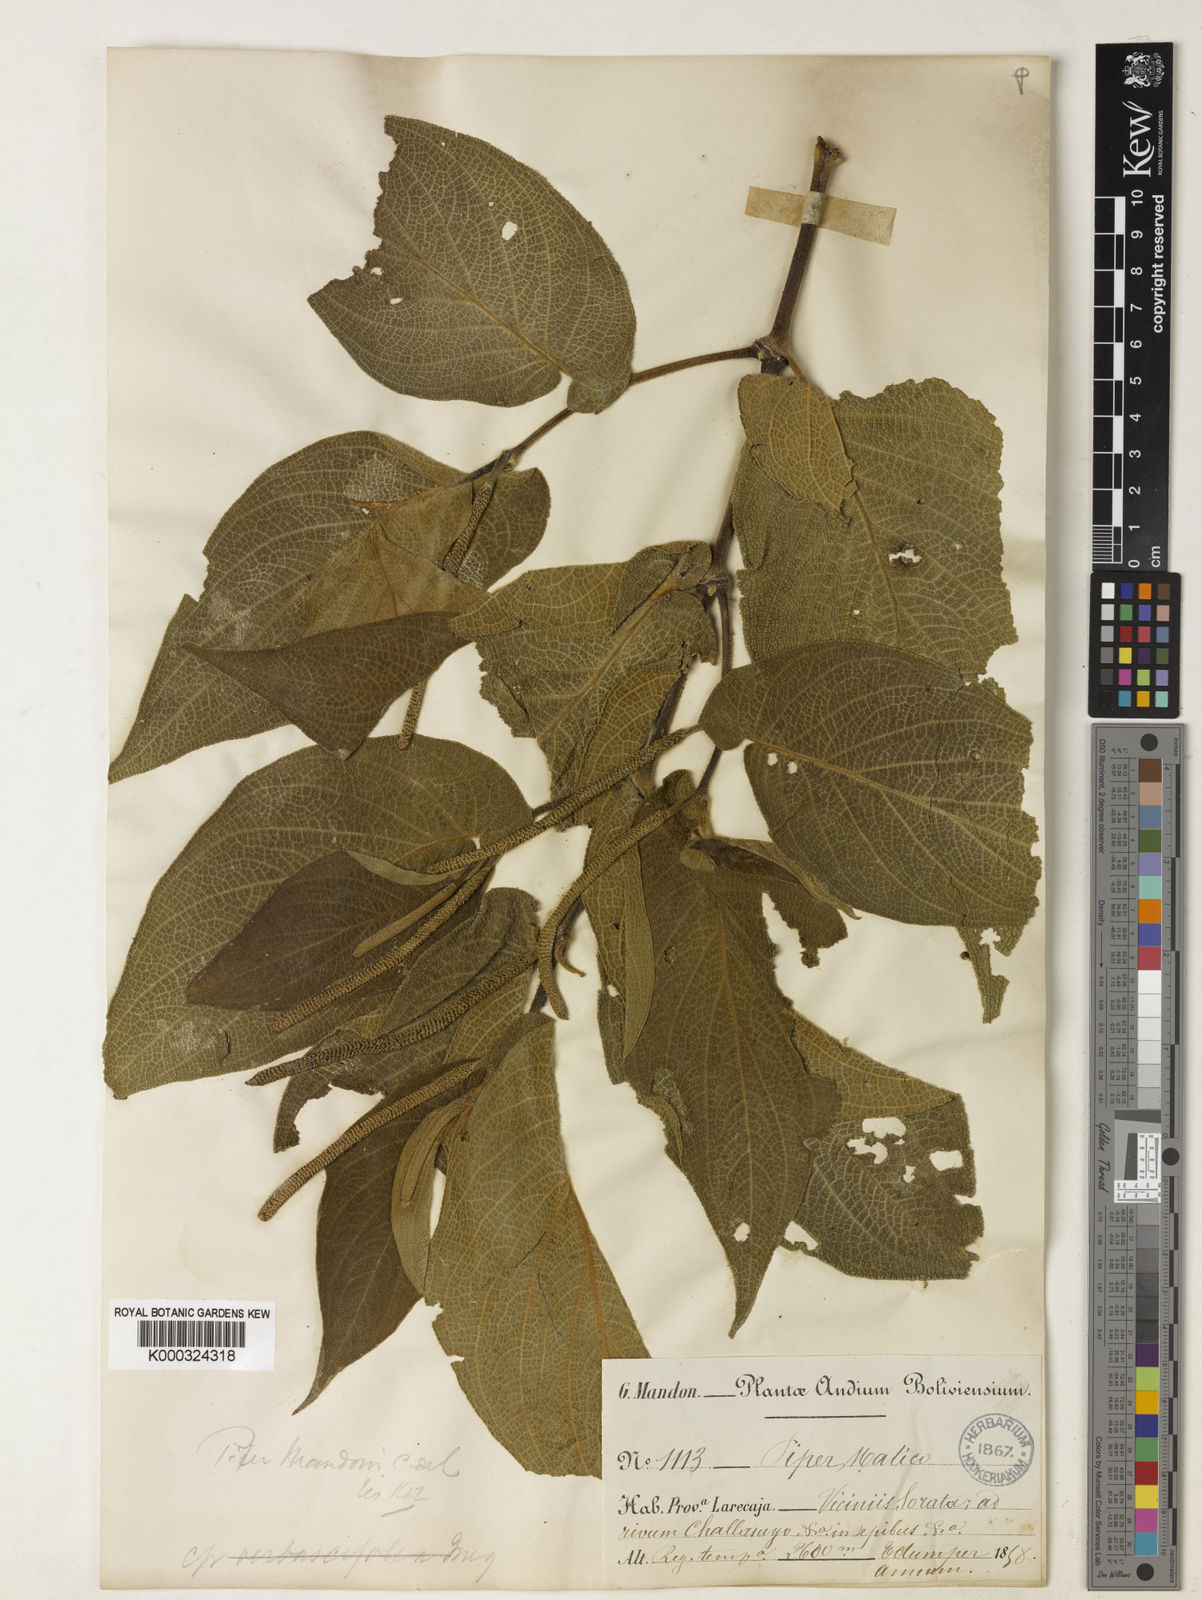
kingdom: Plantae
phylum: Tracheophyta
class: Magnoliopsida
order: Piperales
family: Piperaceae
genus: Piper
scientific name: Piper acutifolium
